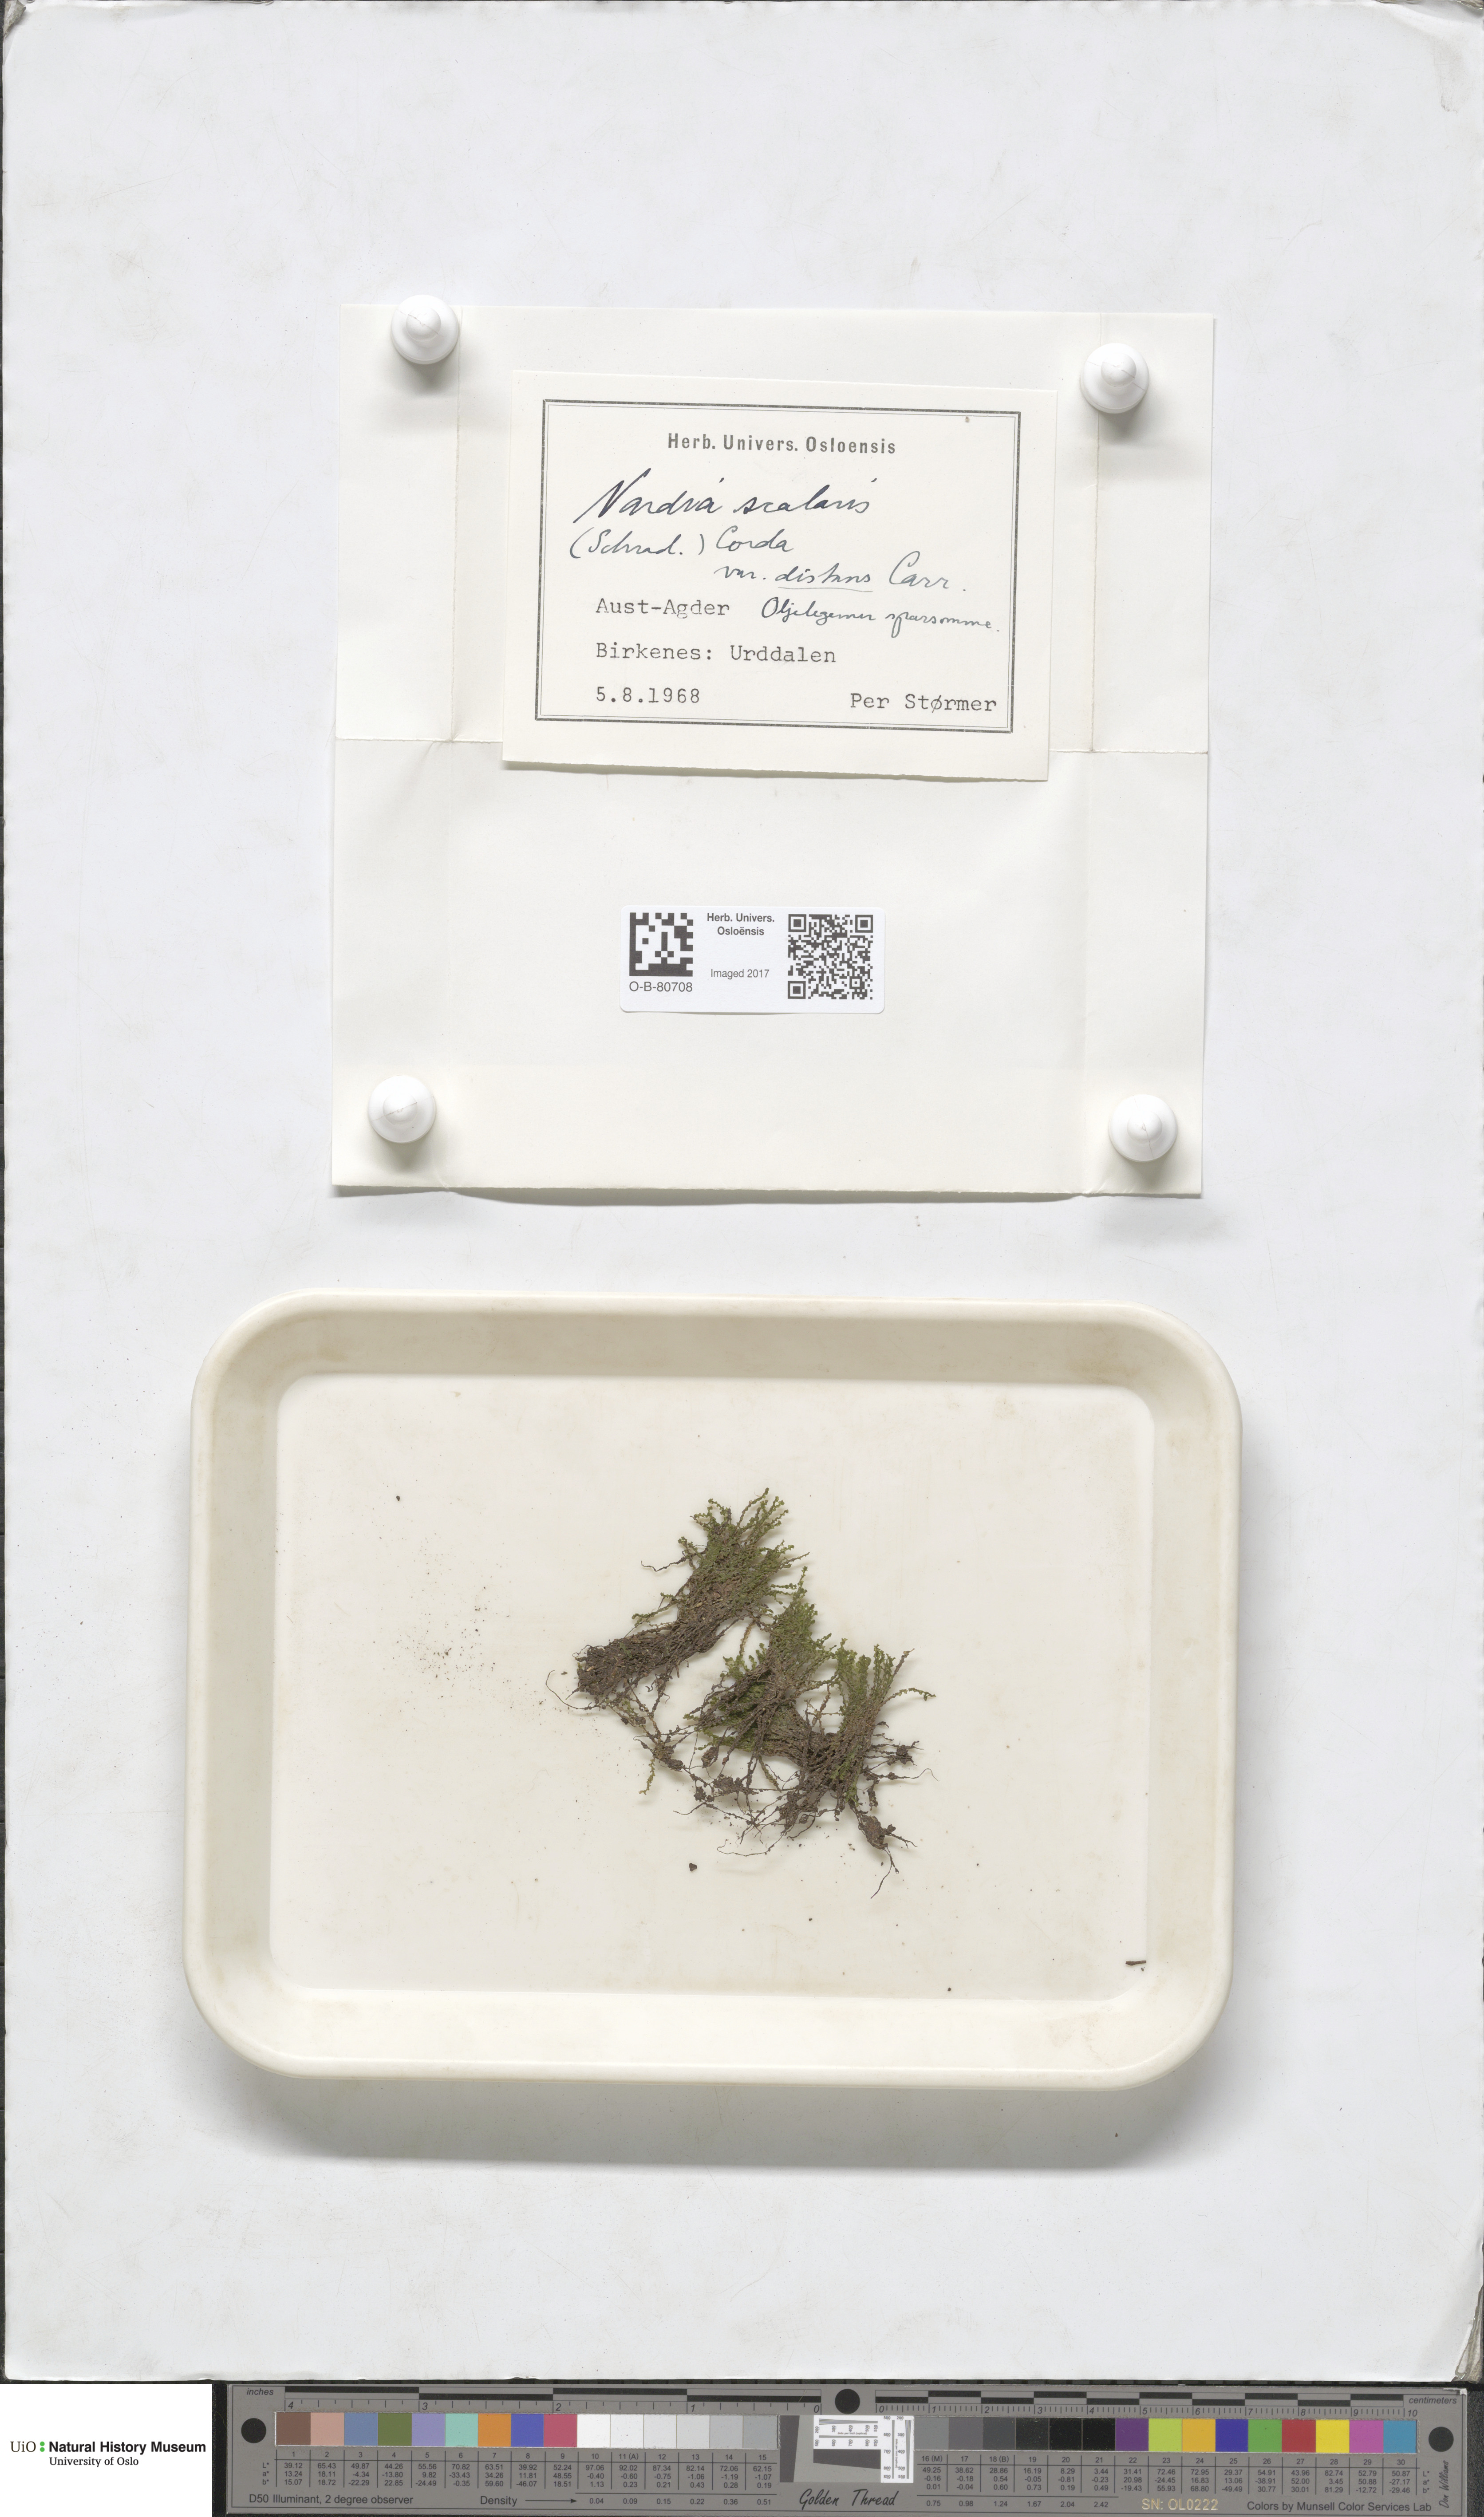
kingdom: Plantae
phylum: Marchantiophyta
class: Jungermanniopsida
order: Jungermanniales
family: Gymnomitriaceae
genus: Nardia
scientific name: Nardia scalaris
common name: Ladder flapwort
